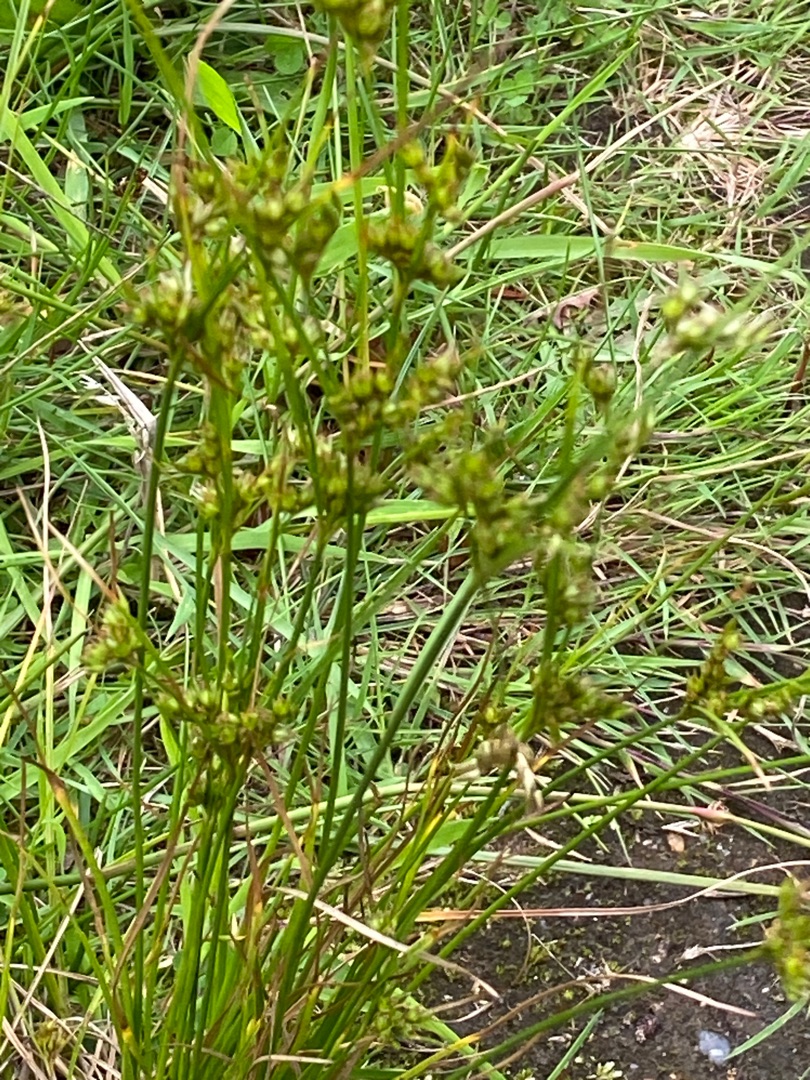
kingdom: Plantae
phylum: Tracheophyta
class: Liliopsida
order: Poales
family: Juncaceae
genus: Juncus
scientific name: Juncus tenuis
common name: Tue-siv
